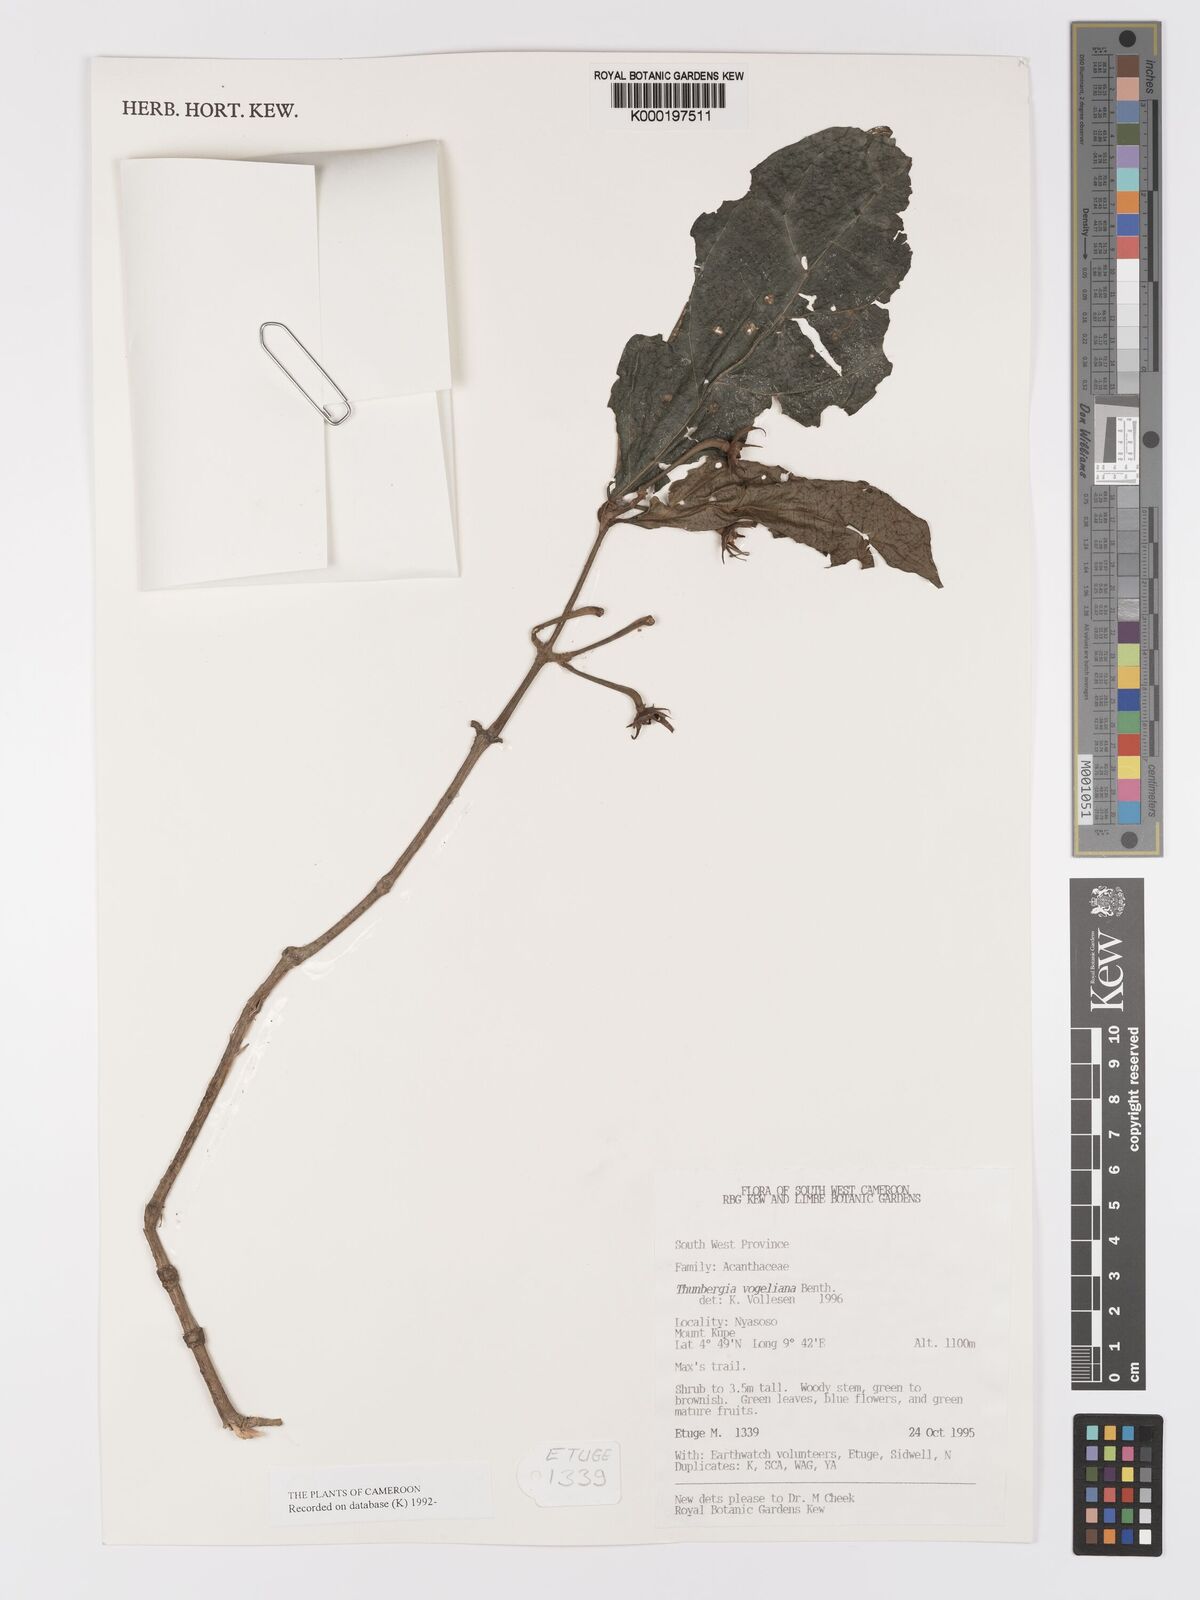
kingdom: Plantae
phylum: Tracheophyta
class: Magnoliopsida
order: Lamiales
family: Acanthaceae
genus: Thunbergia
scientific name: Thunbergia vogeliana
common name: Acanthaceae
